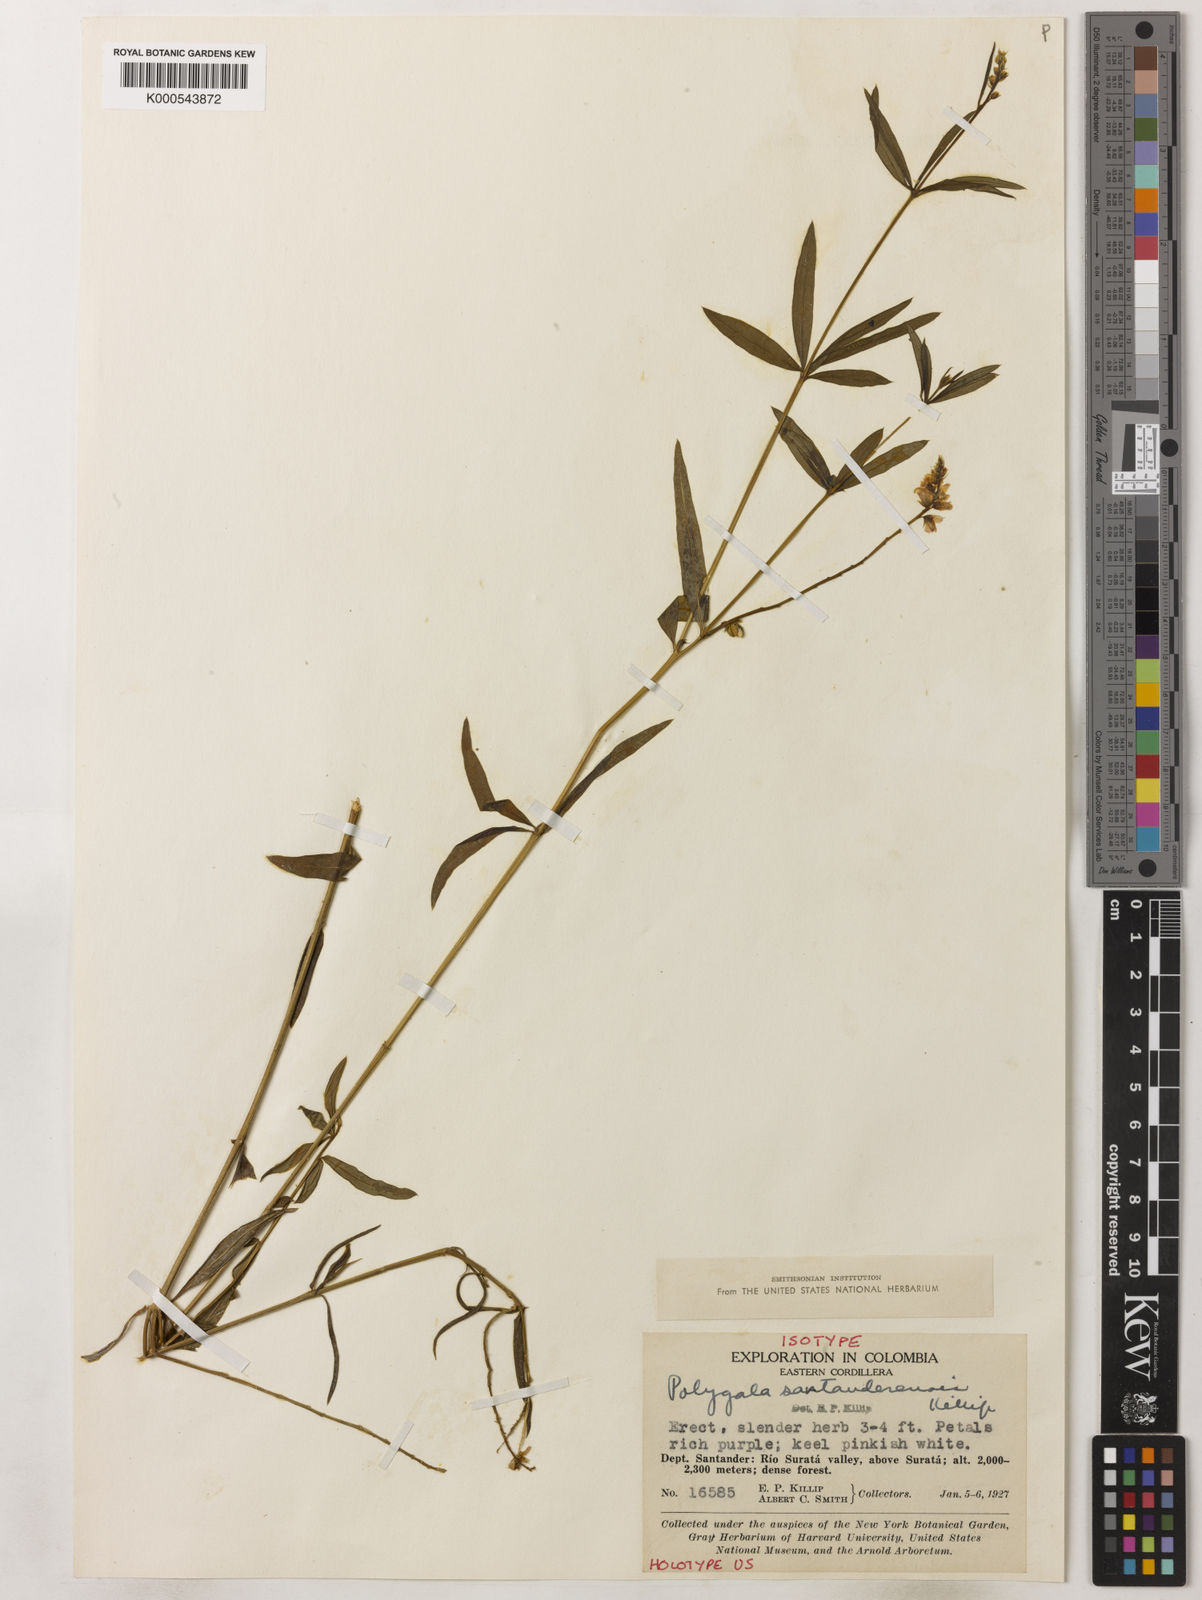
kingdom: Plantae
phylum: Tracheophyta
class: Magnoliopsida
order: Fabales
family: Polygalaceae
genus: Polygala
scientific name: Polygala nemoralis
